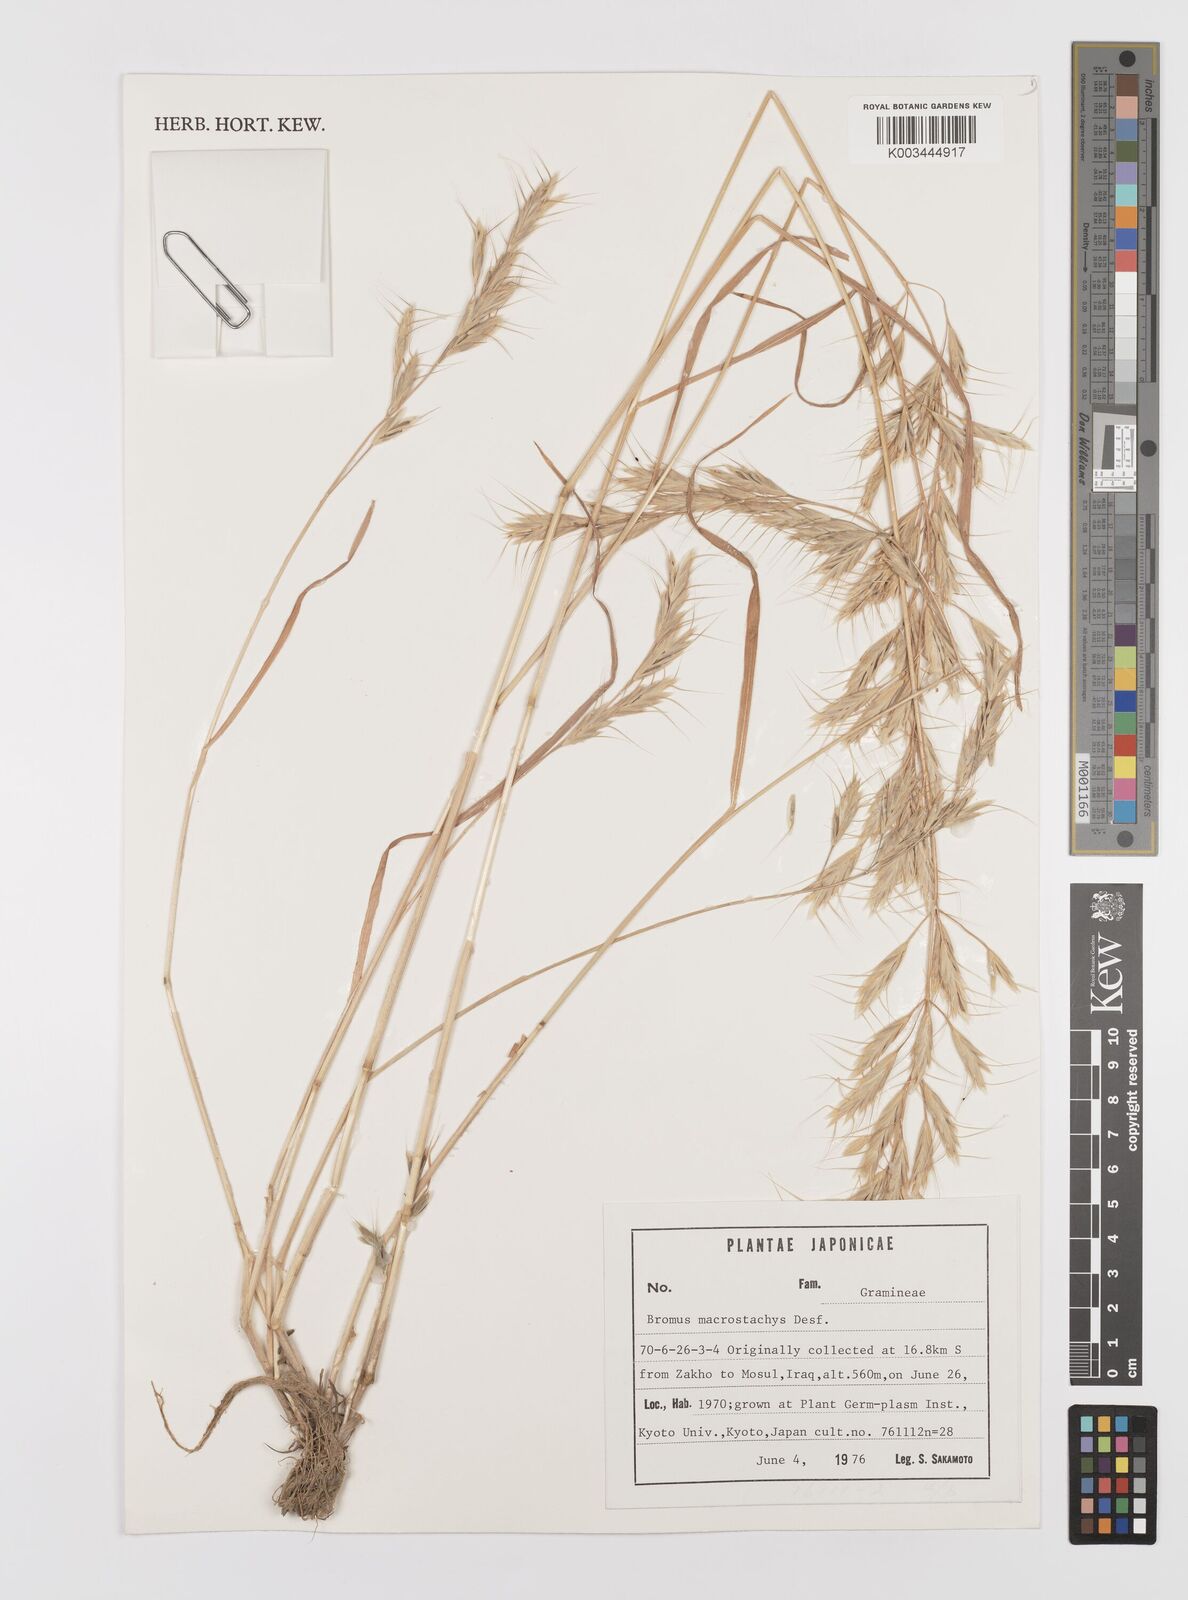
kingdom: Plantae
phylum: Tracheophyta
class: Liliopsida
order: Poales
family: Poaceae
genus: Bromus
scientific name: Bromus lanceolatus
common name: Mediterranean brome
